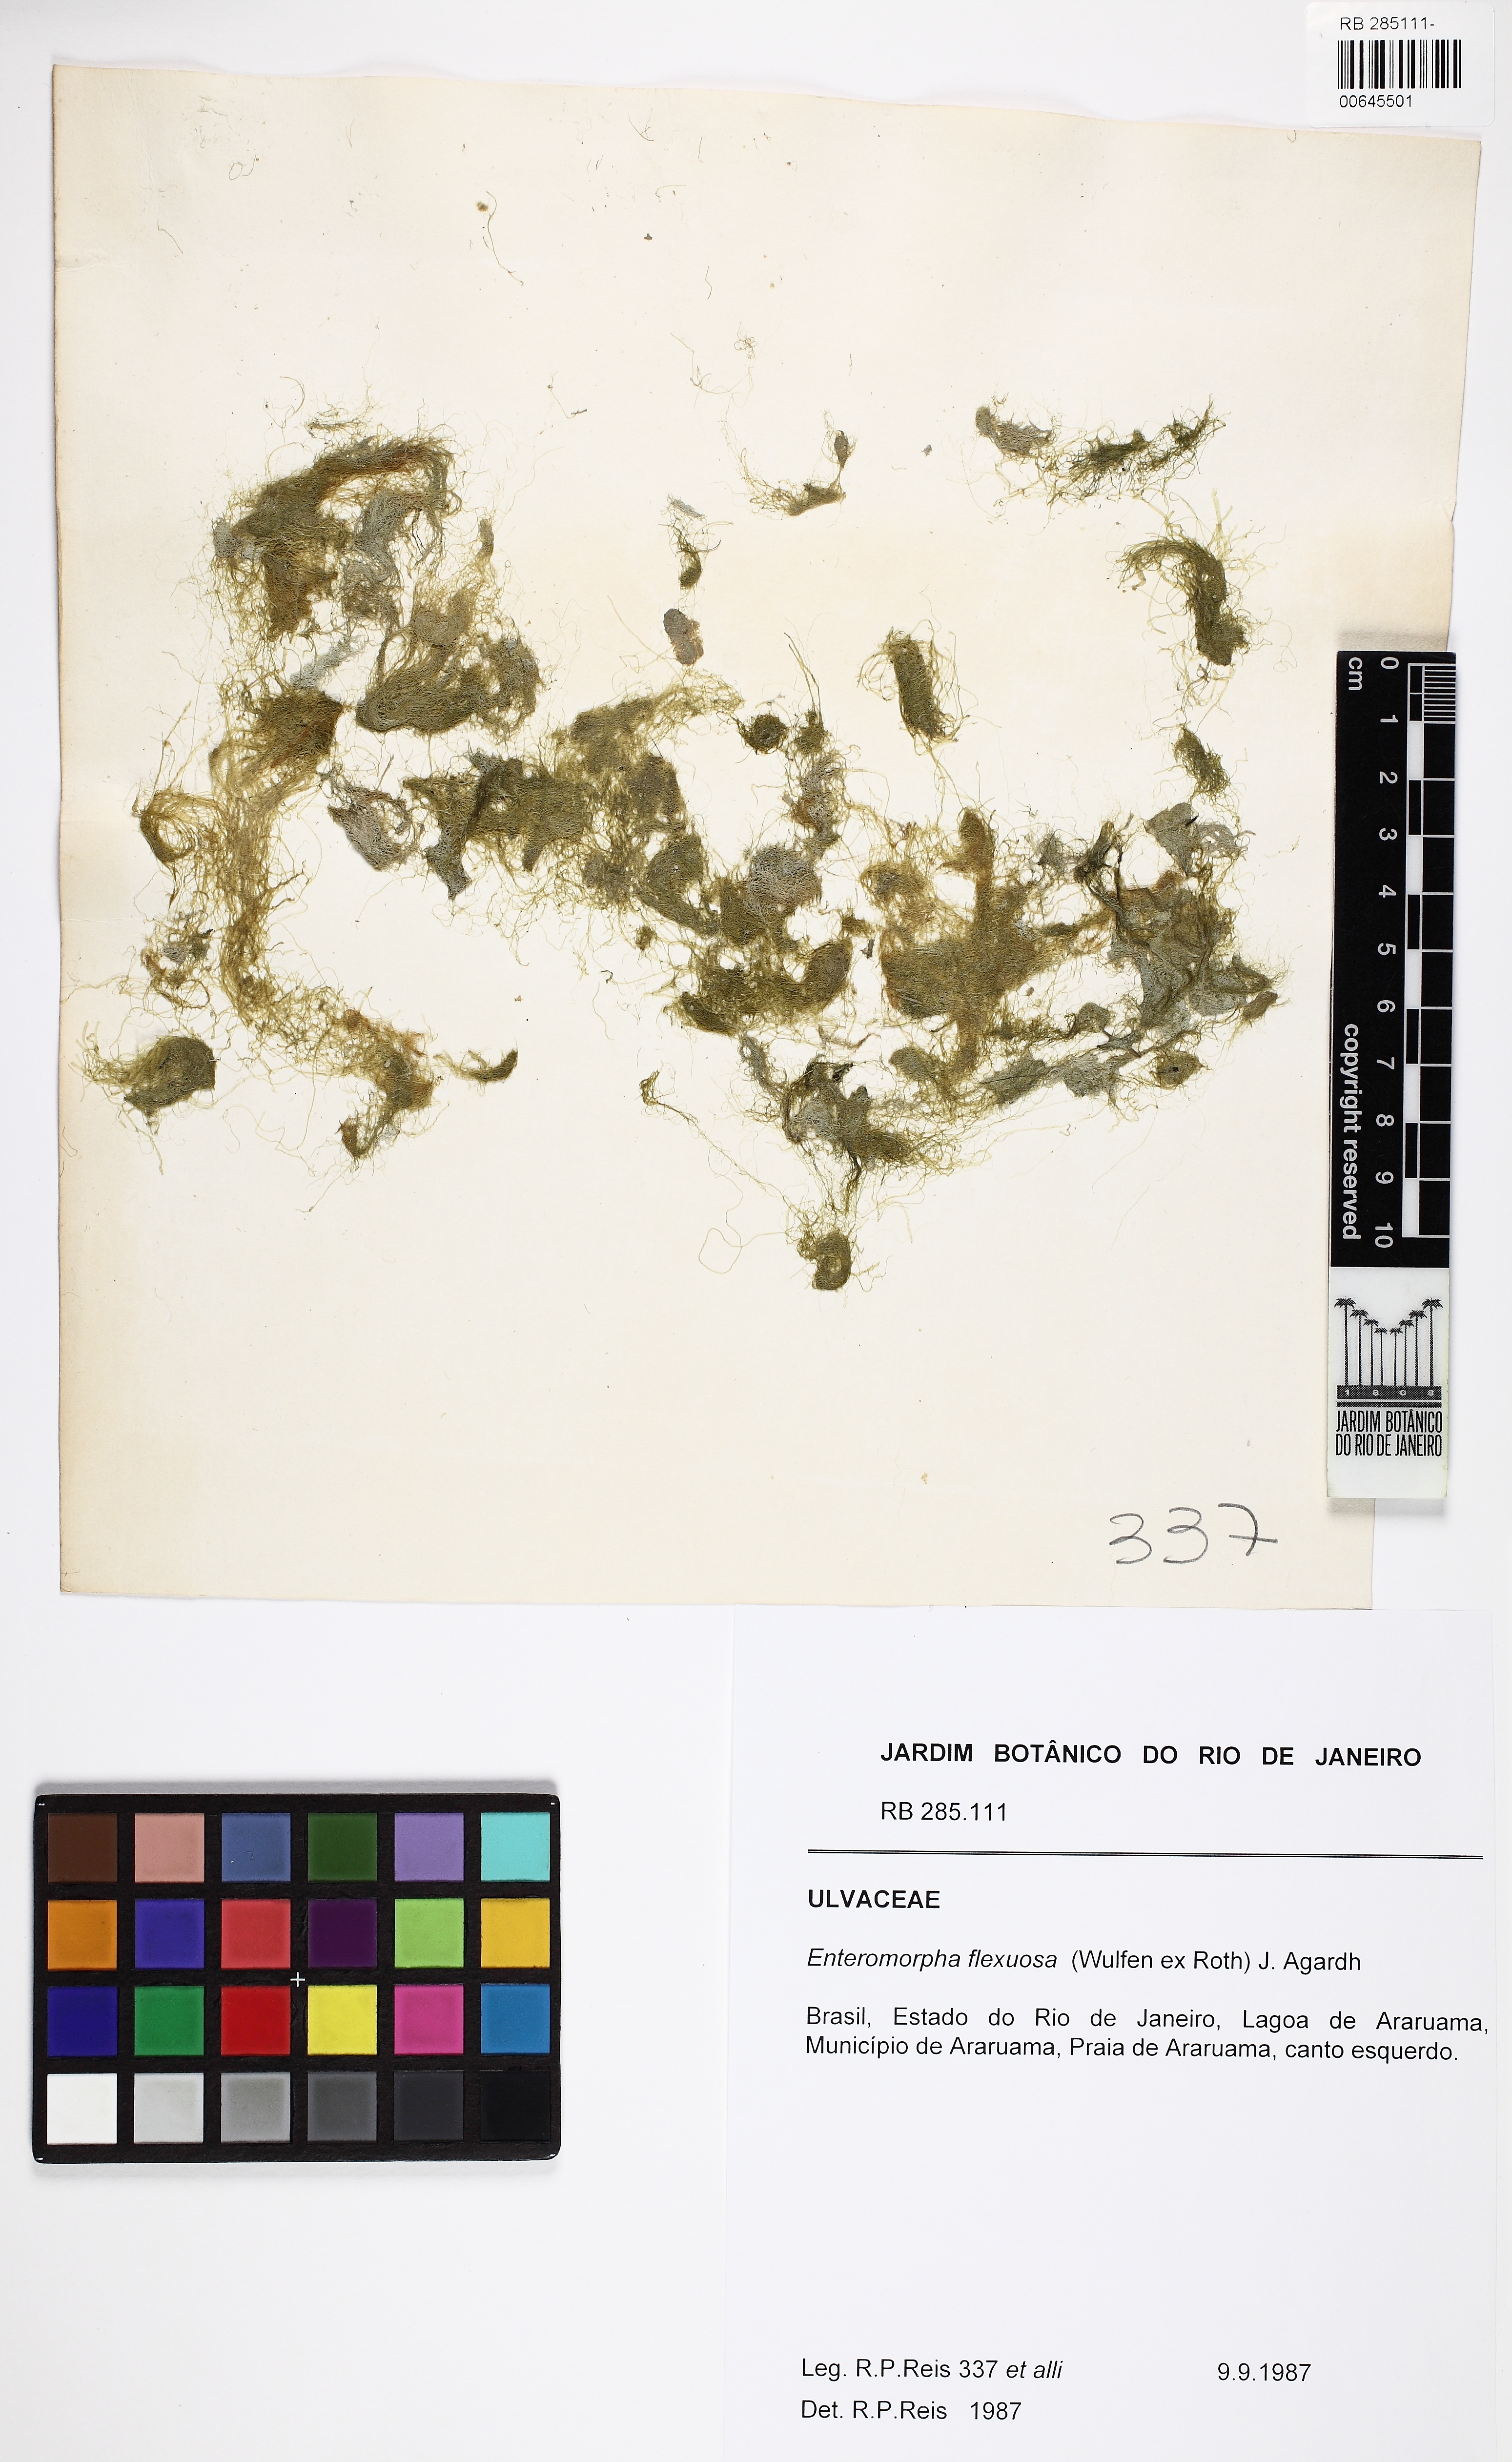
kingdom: Plantae
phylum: Chlorophyta
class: Ulvophyceae
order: Ulvales
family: Ulvaceae
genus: Ulva
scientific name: Ulva flexuosa
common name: Flexuous gutweed
